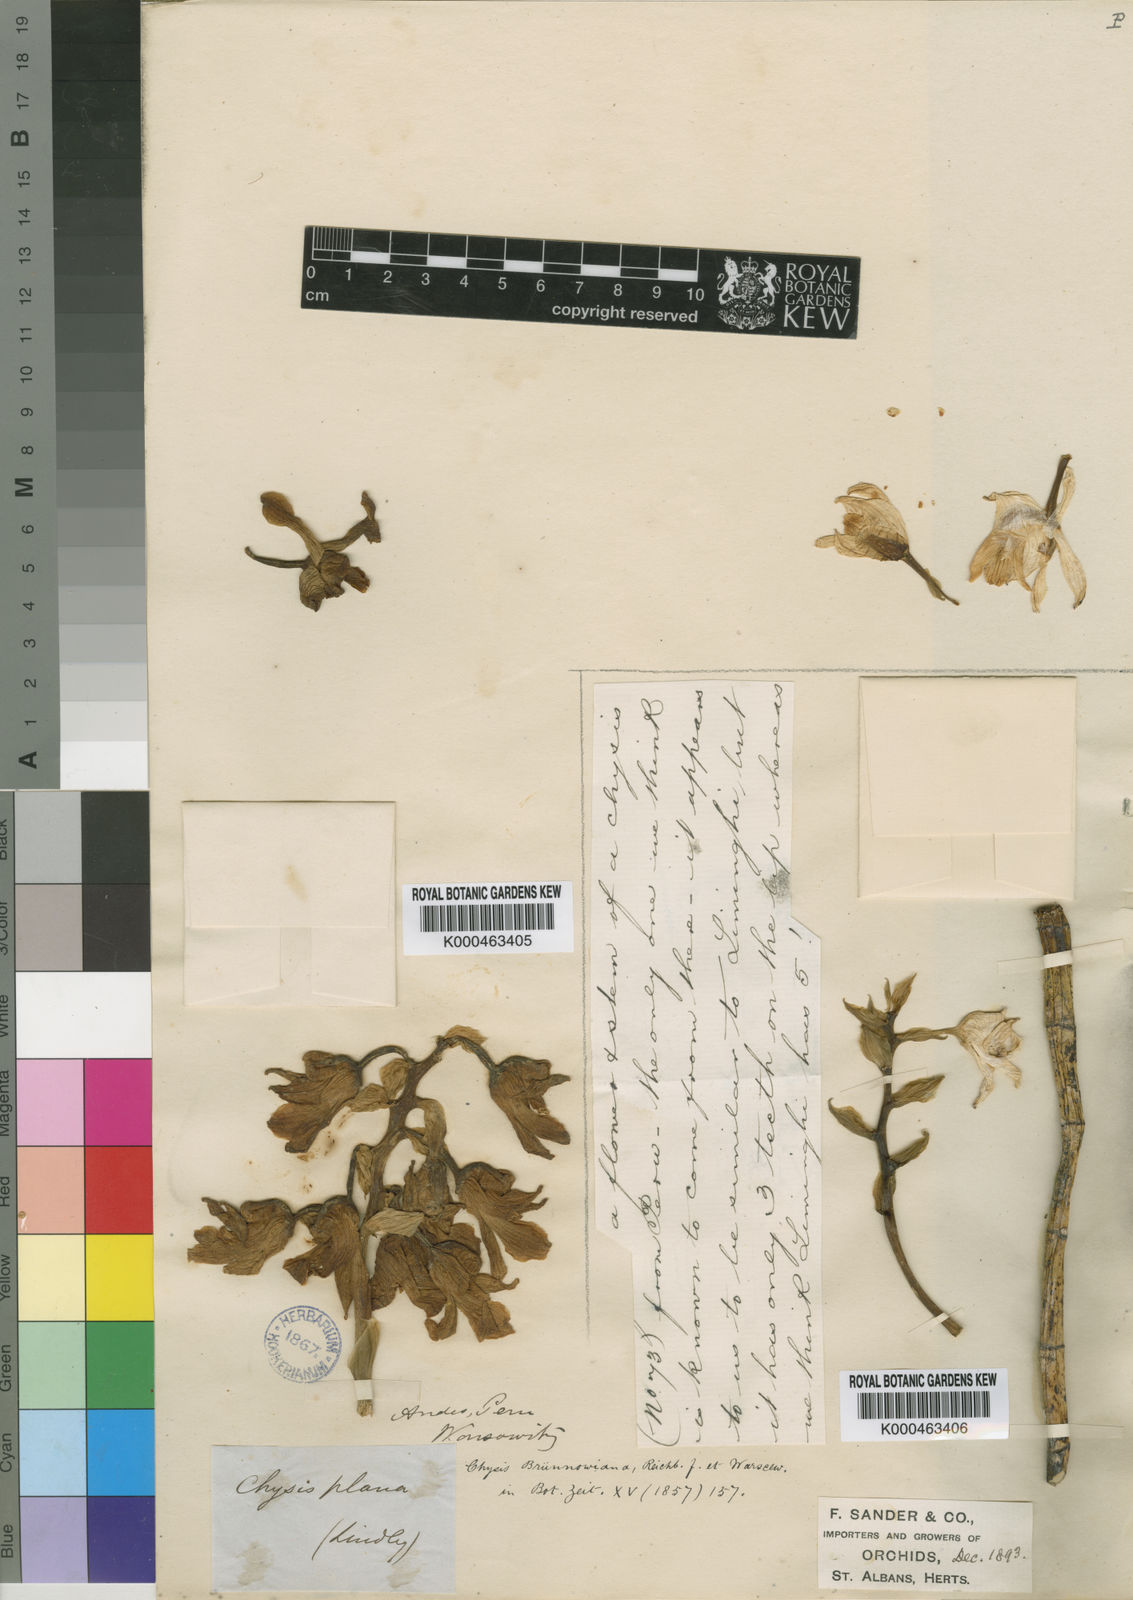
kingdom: Plantae
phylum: Tracheophyta
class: Liliopsida
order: Asparagales
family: Orchidaceae
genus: Chysis
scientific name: Chysis bruennowiana
